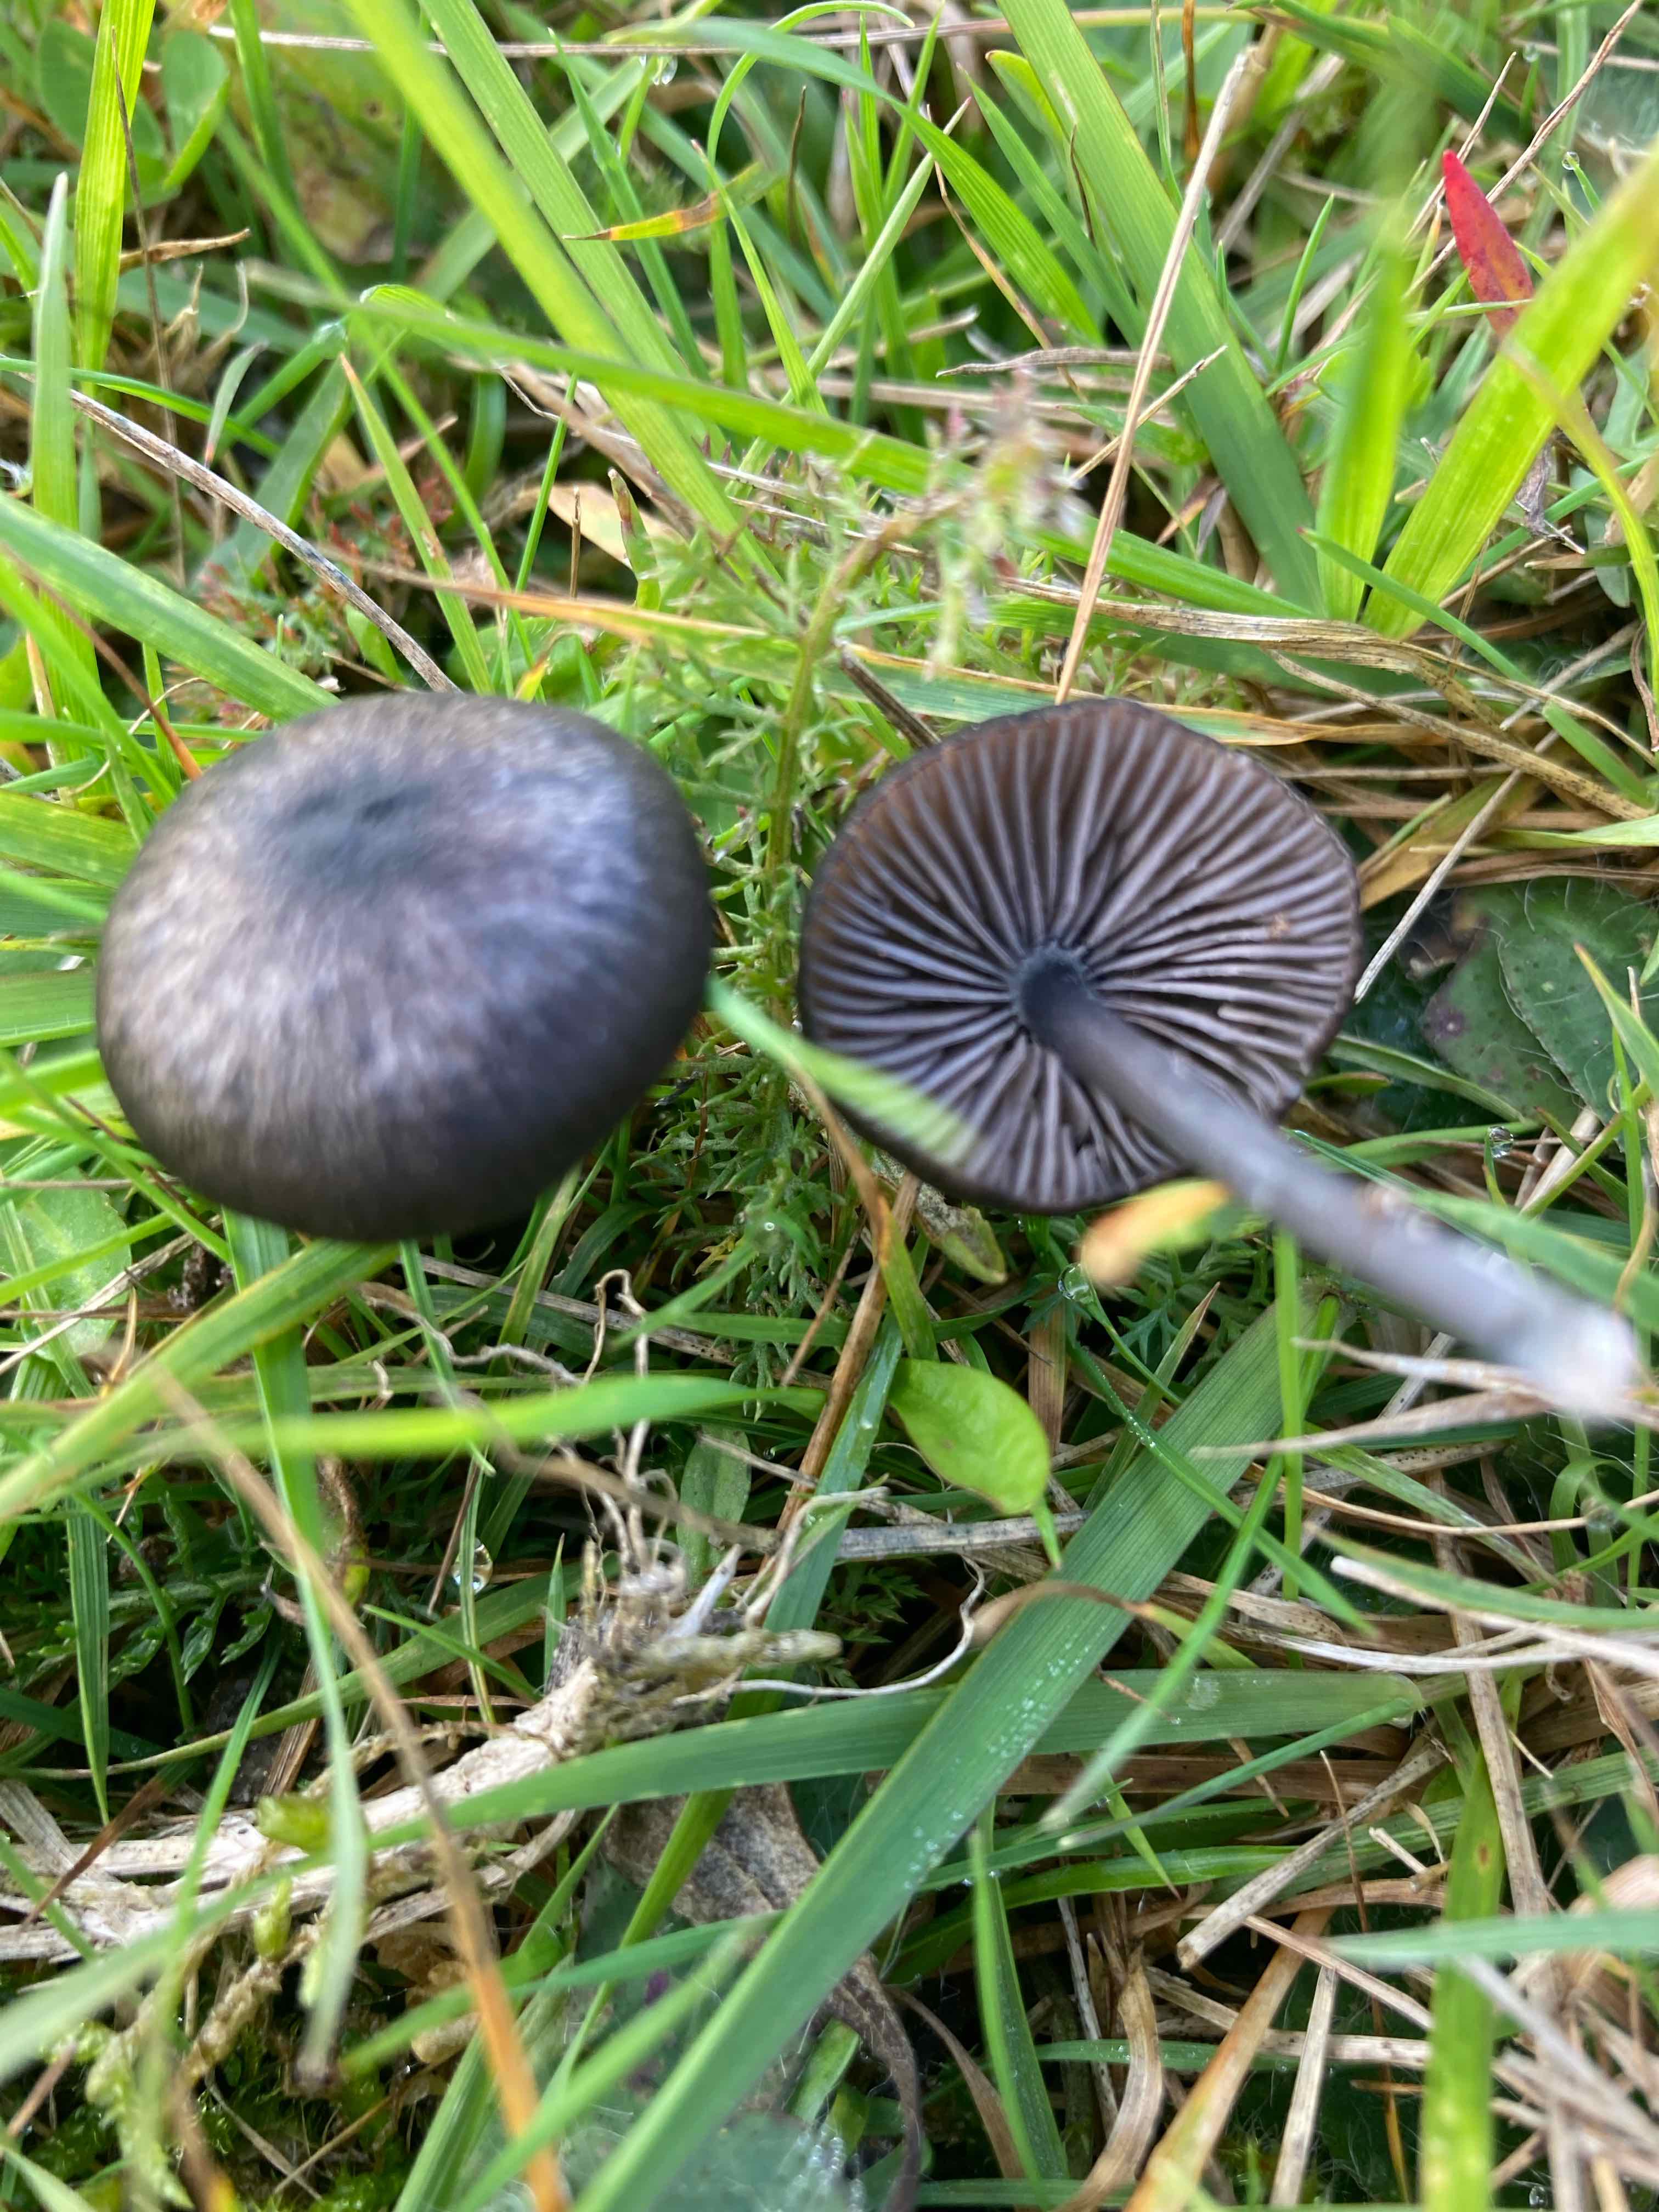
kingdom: Fungi
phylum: Basidiomycota
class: Agaricomycetes
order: Agaricales
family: Entolomataceae
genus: Entoloma
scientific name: Entoloma
